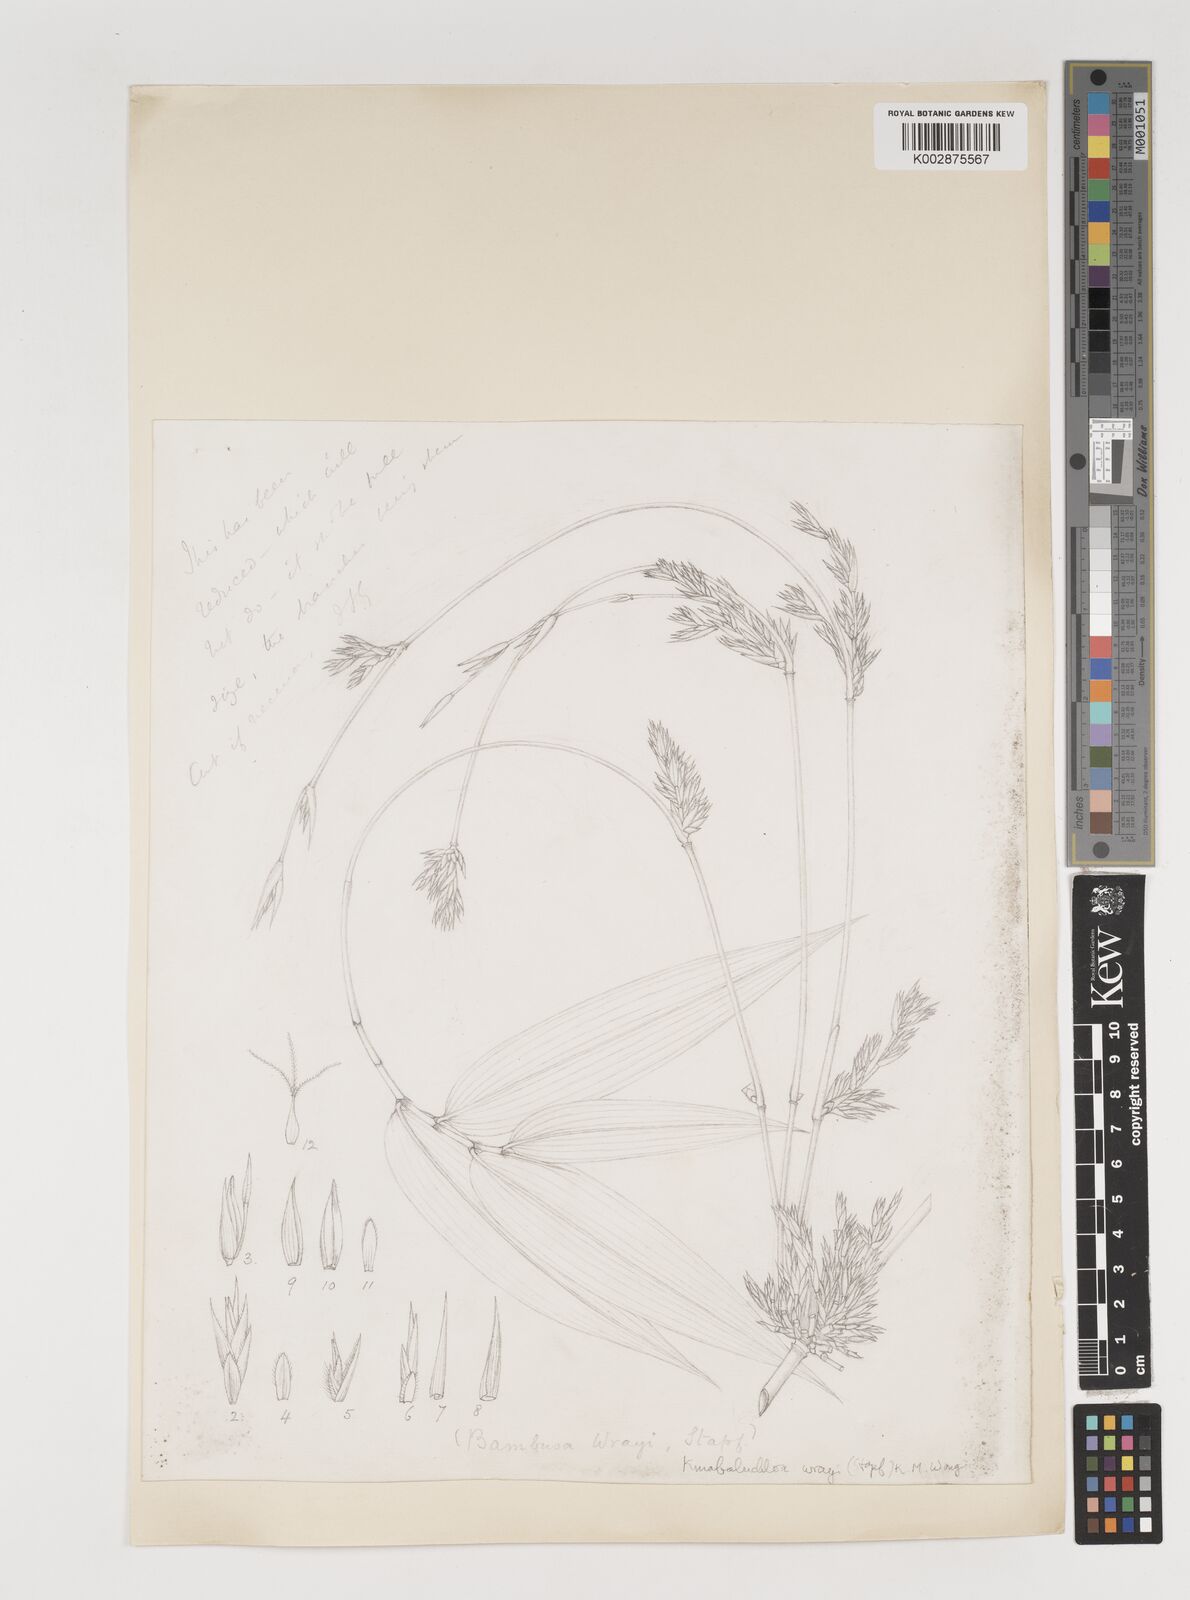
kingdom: Plantae
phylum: Tracheophyta
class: Liliopsida
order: Poales
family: Poaceae
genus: Kinabaluchloa
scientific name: Kinabaluchloa wrayi
